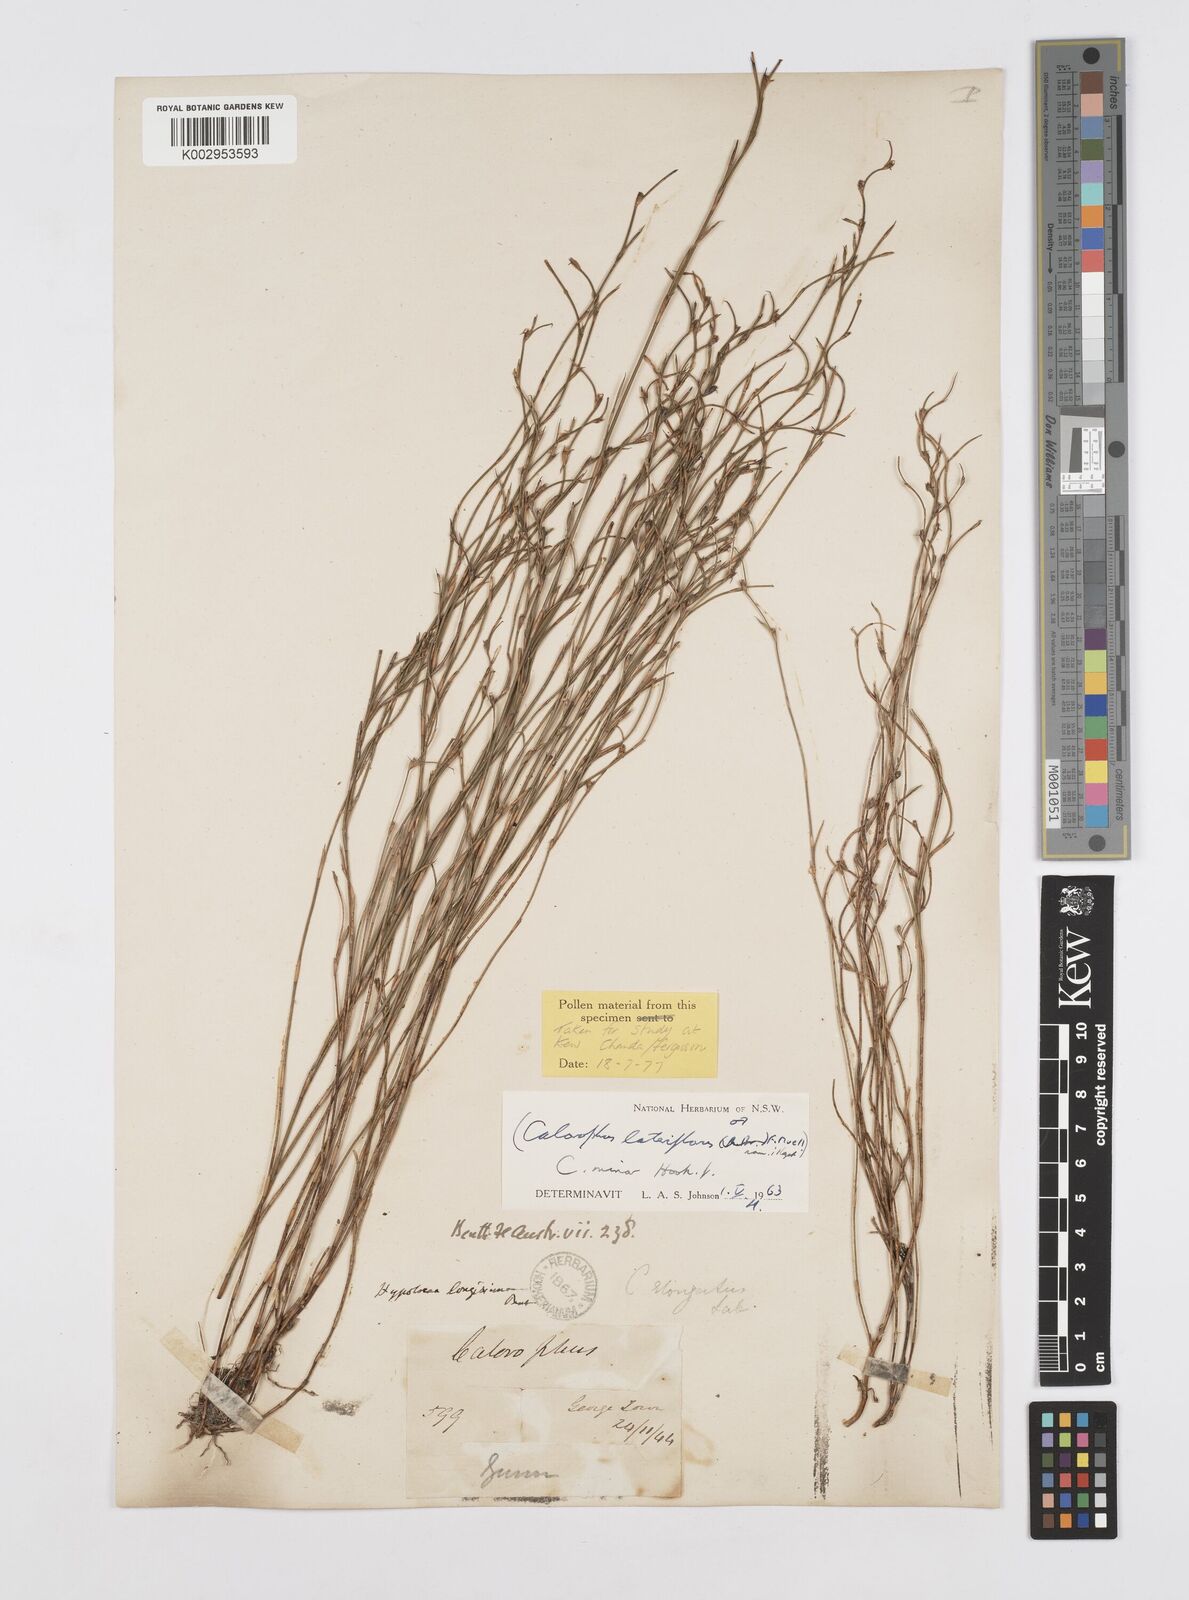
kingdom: Plantae
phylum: Tracheophyta
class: Liliopsida
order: Poales
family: Restionaceae
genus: Empodisma
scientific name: Empodisma minus
